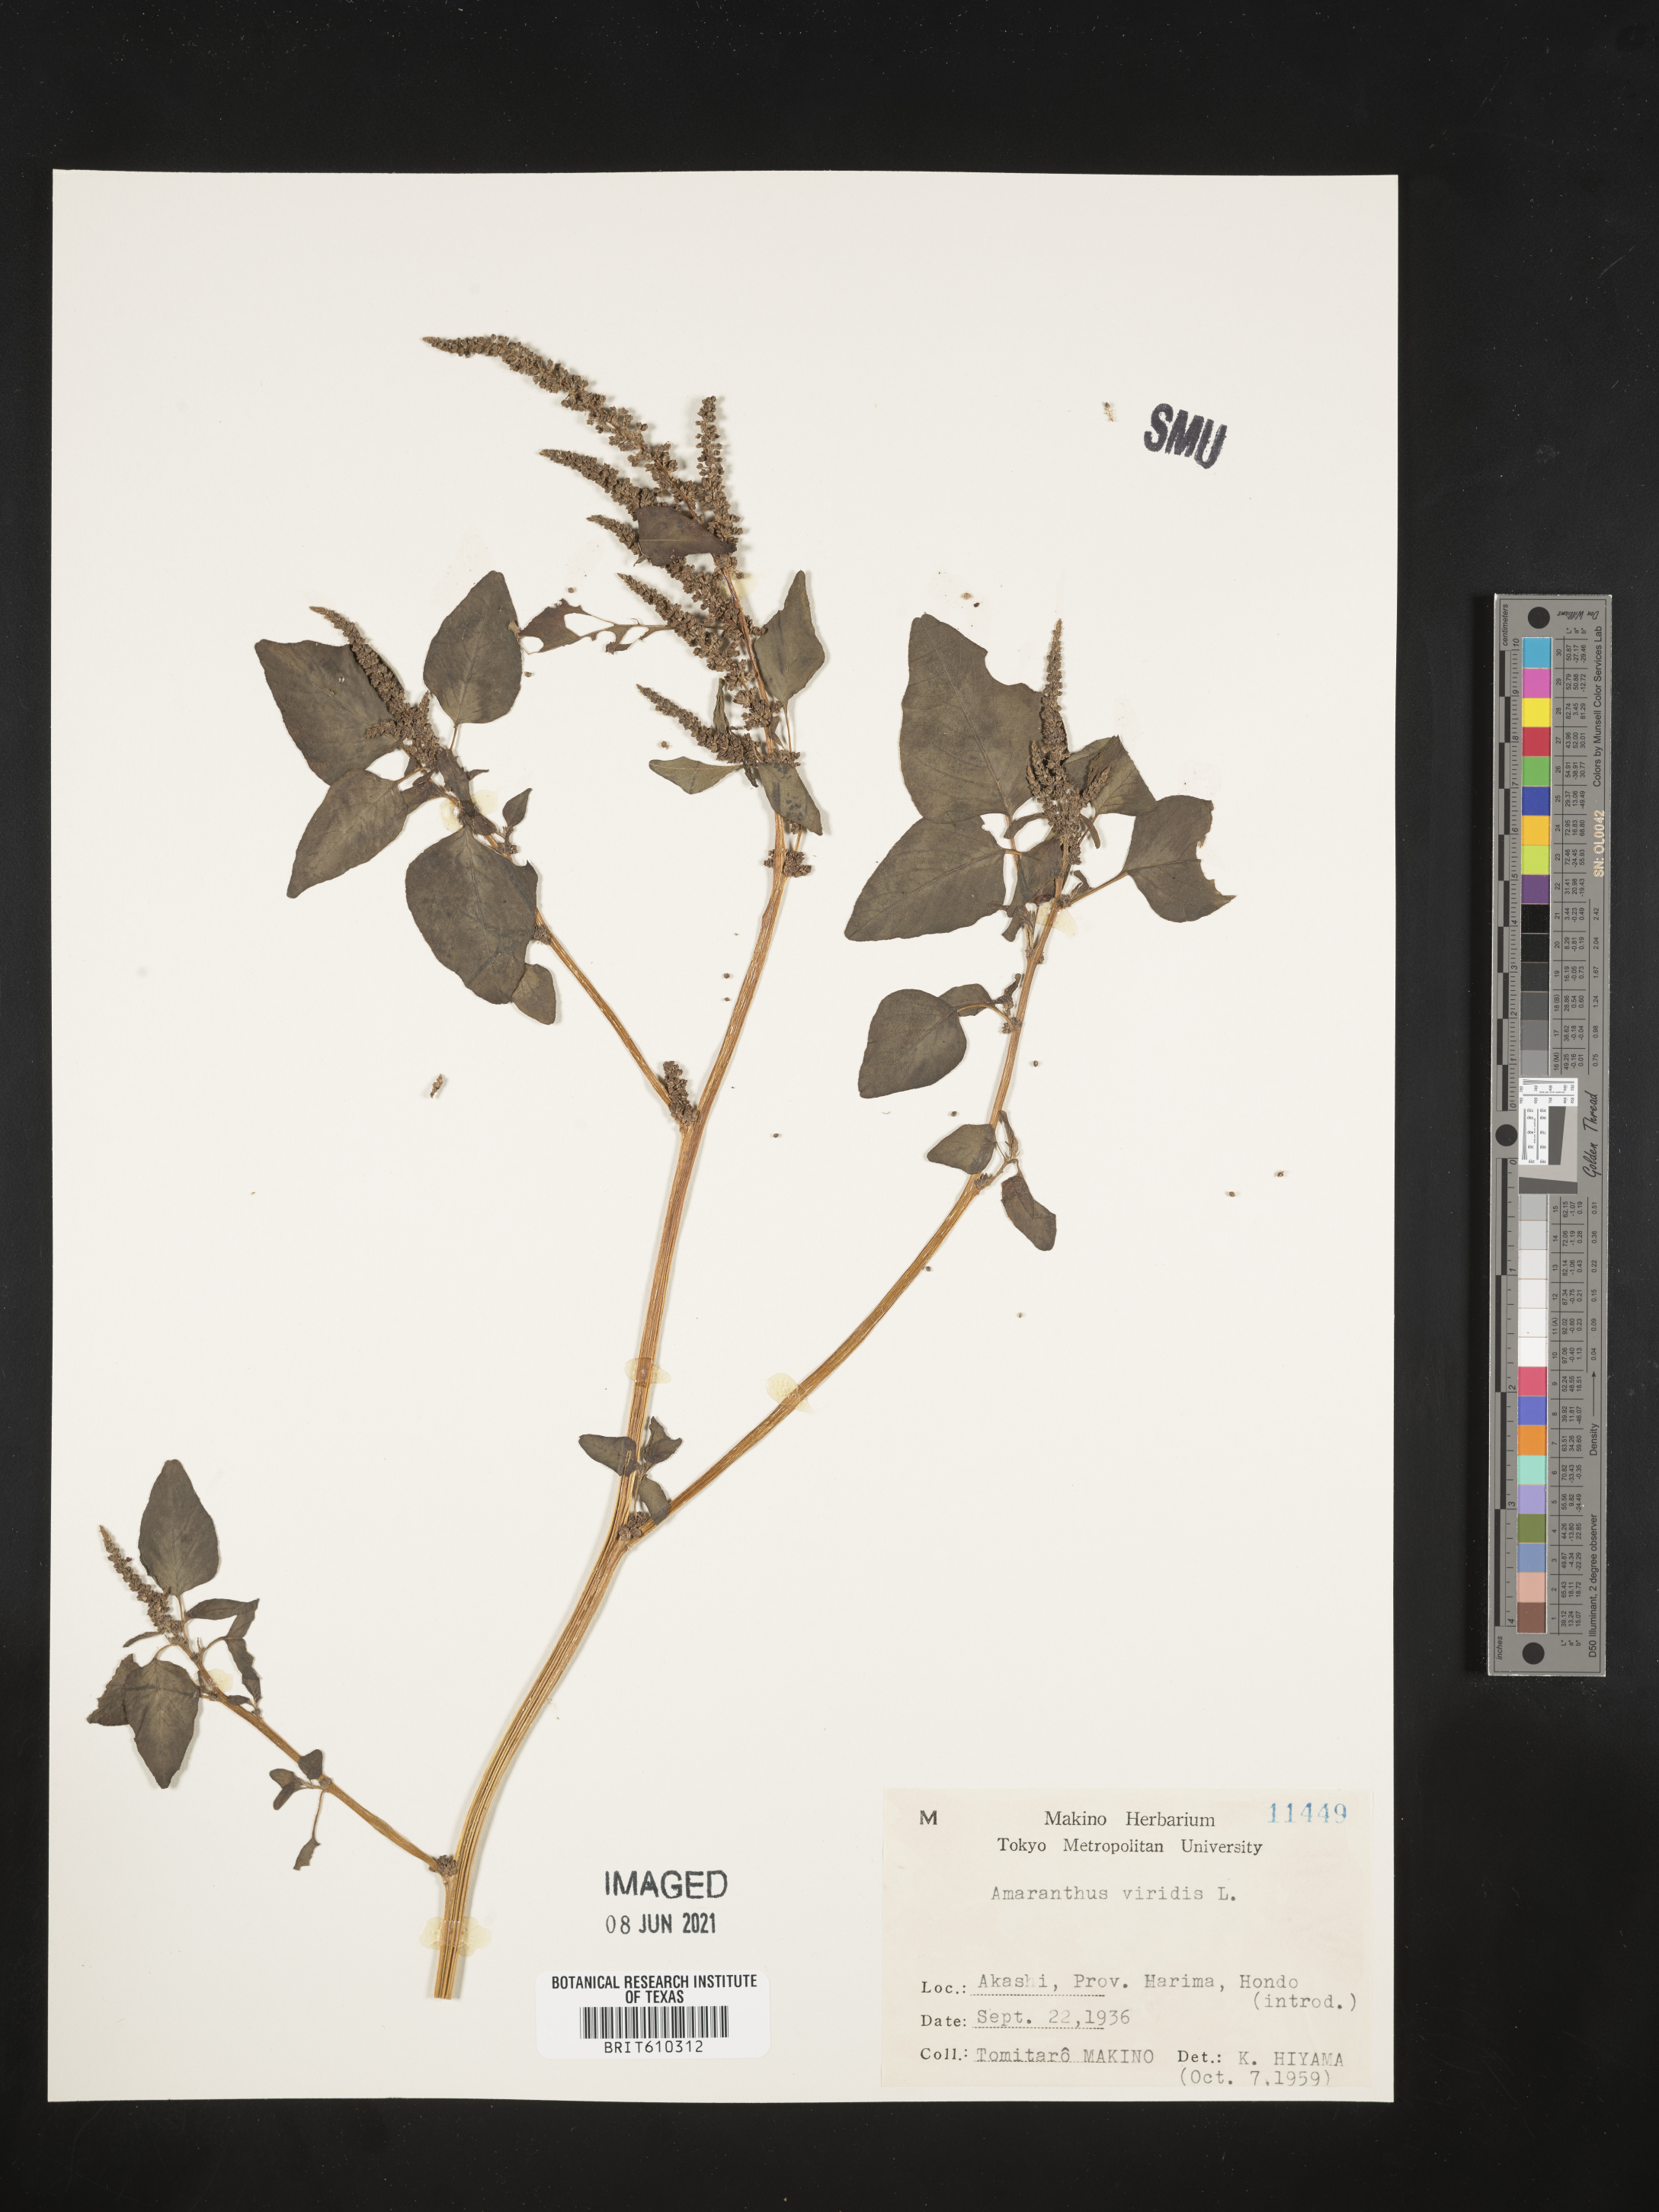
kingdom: Plantae
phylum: Tracheophyta
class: Magnoliopsida
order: Caryophyllales
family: Amaranthaceae
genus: Amaranthus
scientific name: Amaranthus viridis
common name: Slender amaranth
